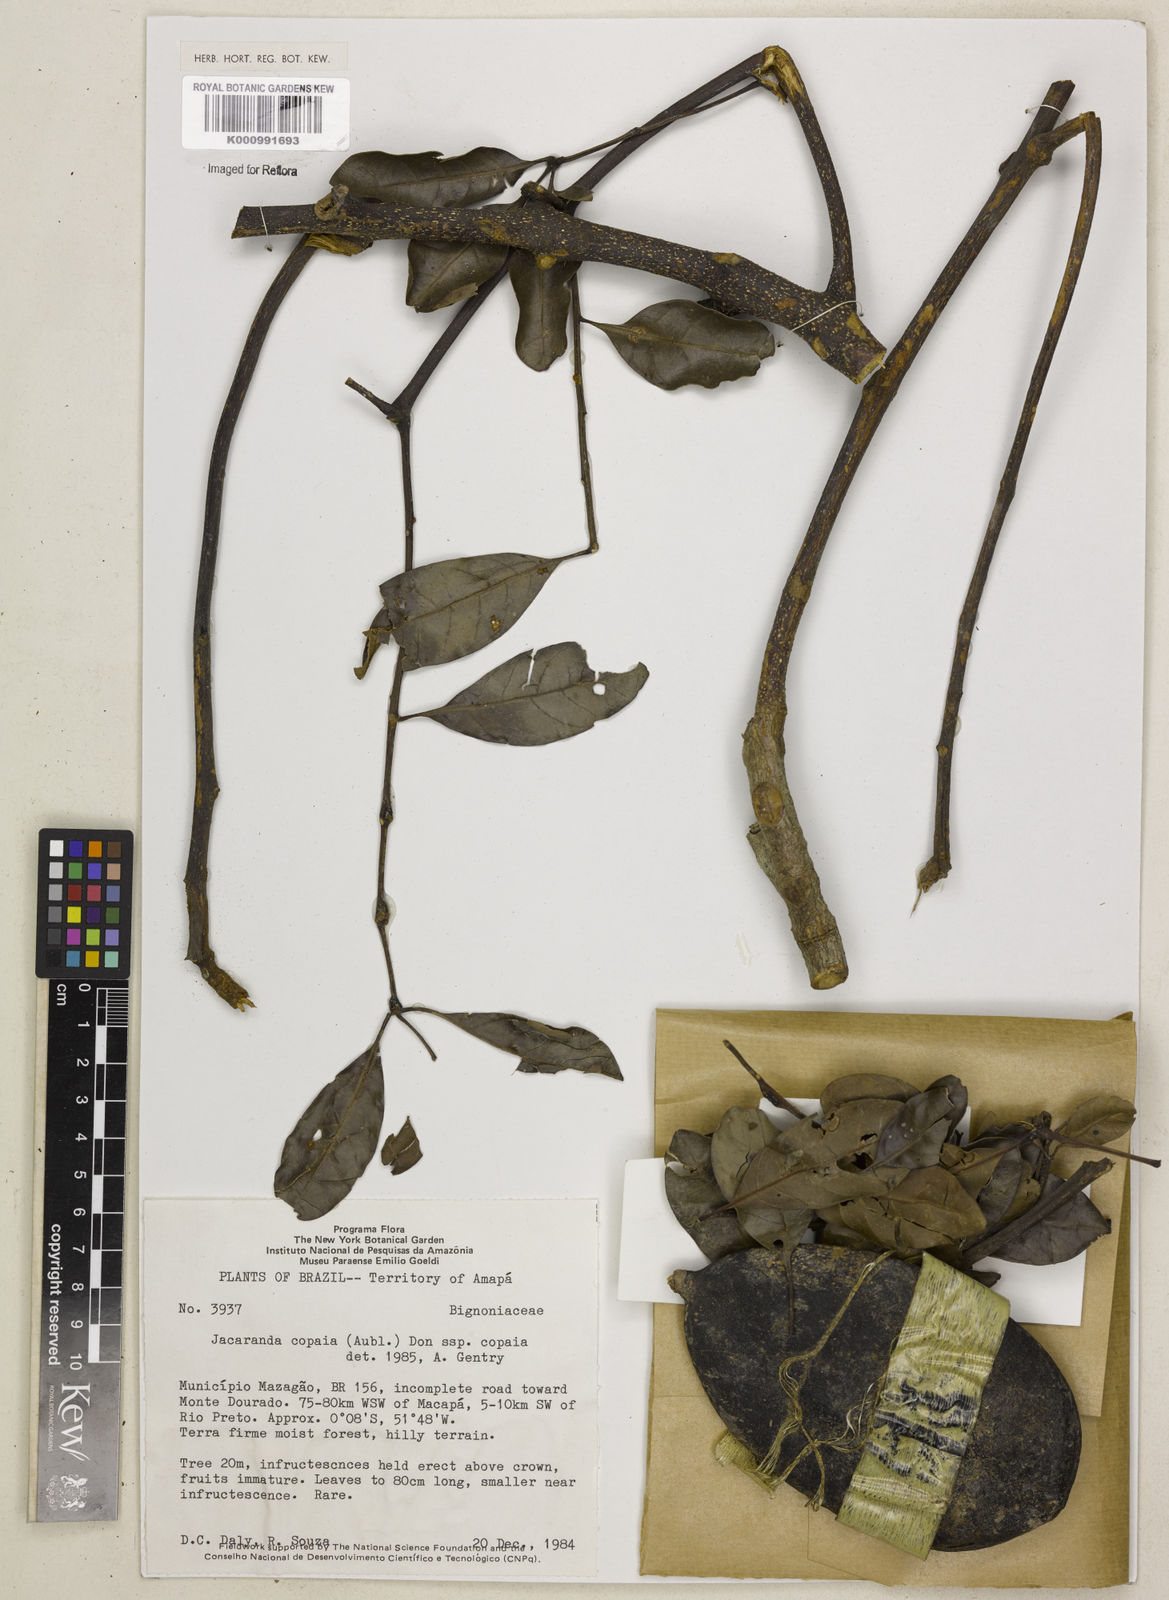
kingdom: Plantae
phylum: Tracheophyta
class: Magnoliopsida
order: Lamiales
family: Bignoniaceae
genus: Jacaranda
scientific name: Jacaranda copaia
